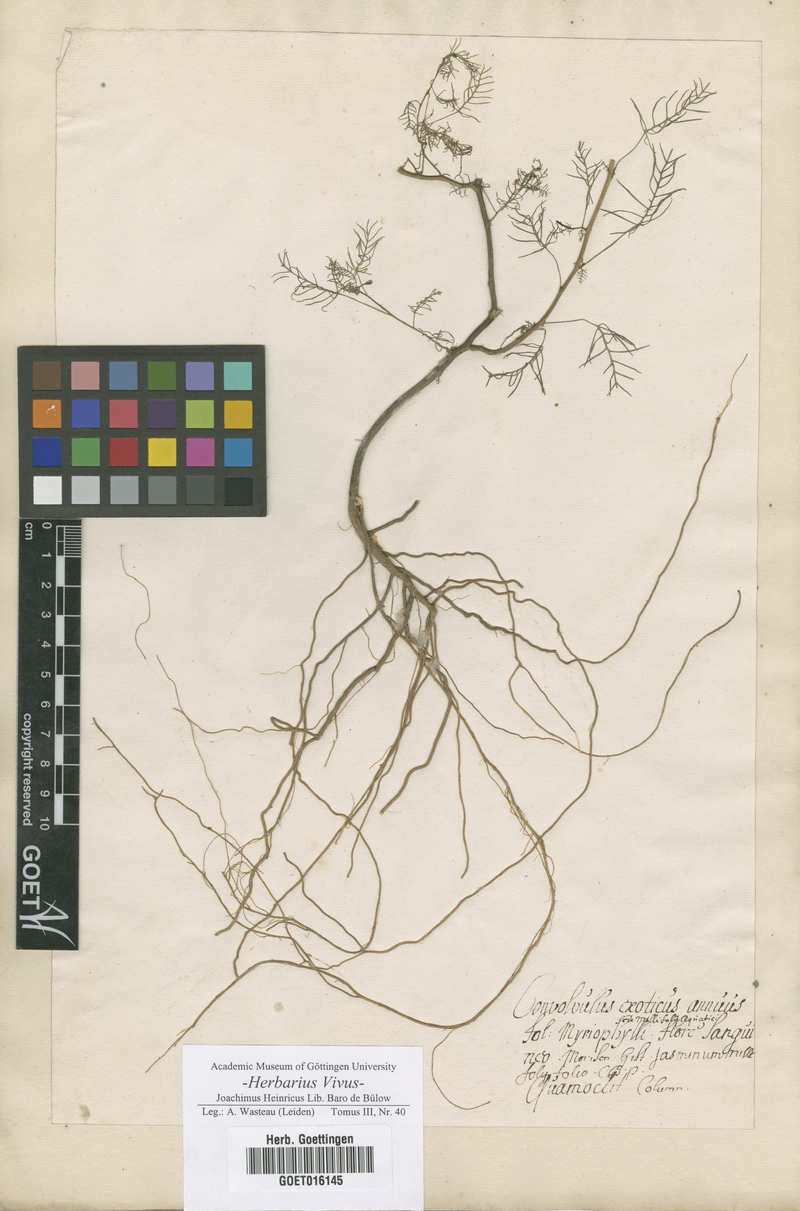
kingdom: Plantae
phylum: Tracheophyta
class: Magnoliopsida
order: Solanales
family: Convolvulaceae
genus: Ipomoea
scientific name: Ipomoea quamoclit
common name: Cypress vine
